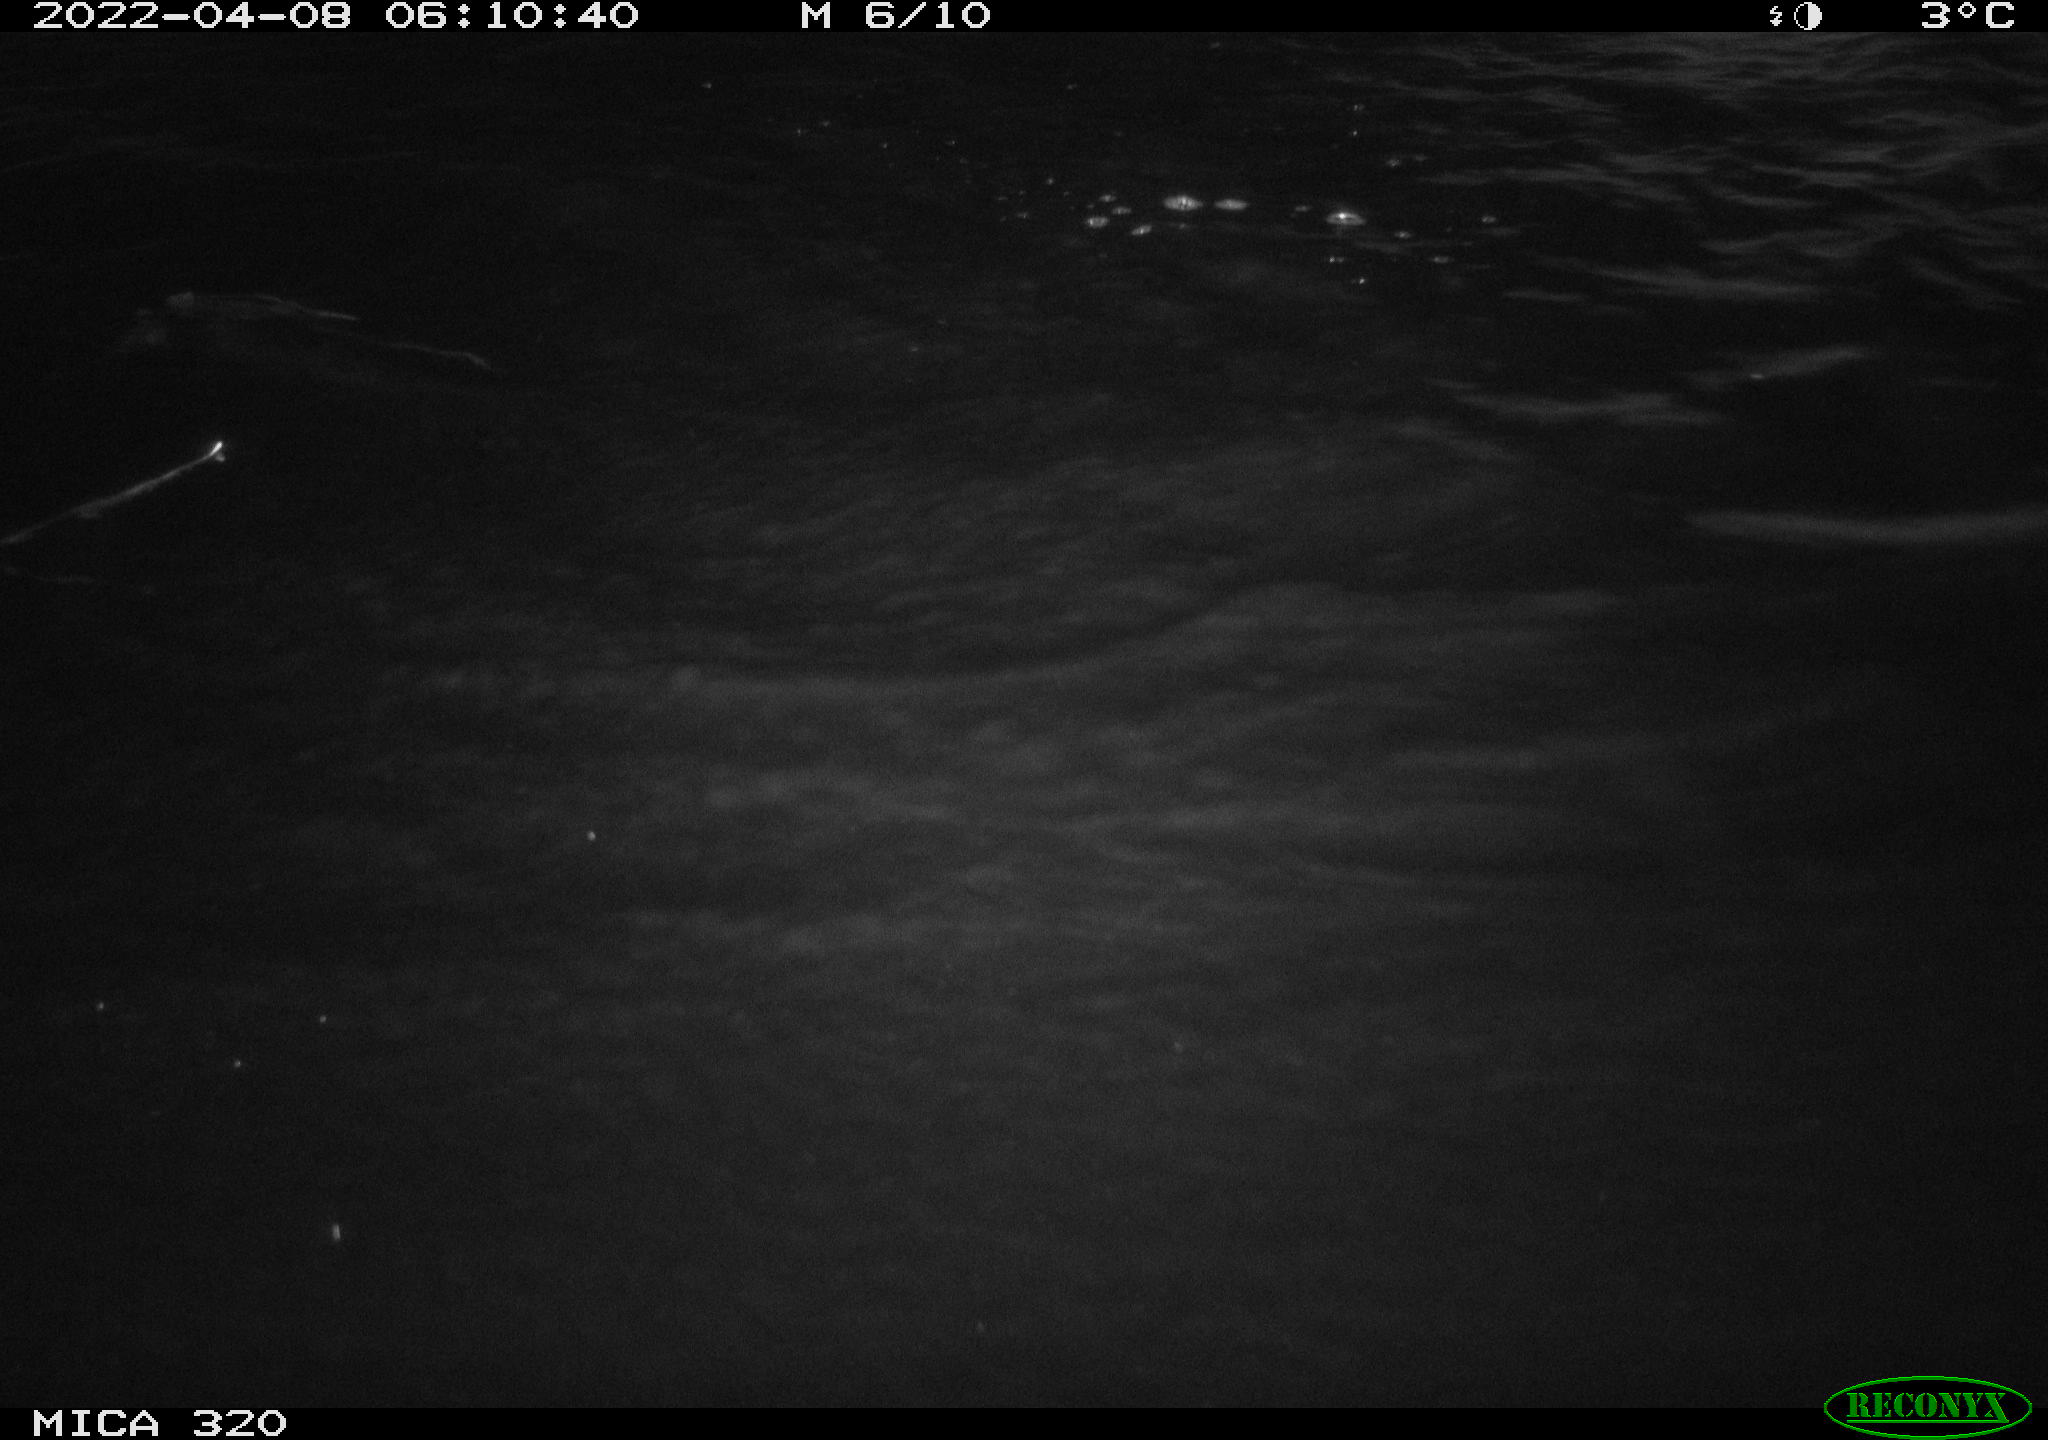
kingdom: Animalia
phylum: Chordata
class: Aves
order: Anseriformes
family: Anatidae
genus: Anas
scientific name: Anas platyrhynchos
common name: Mallard
